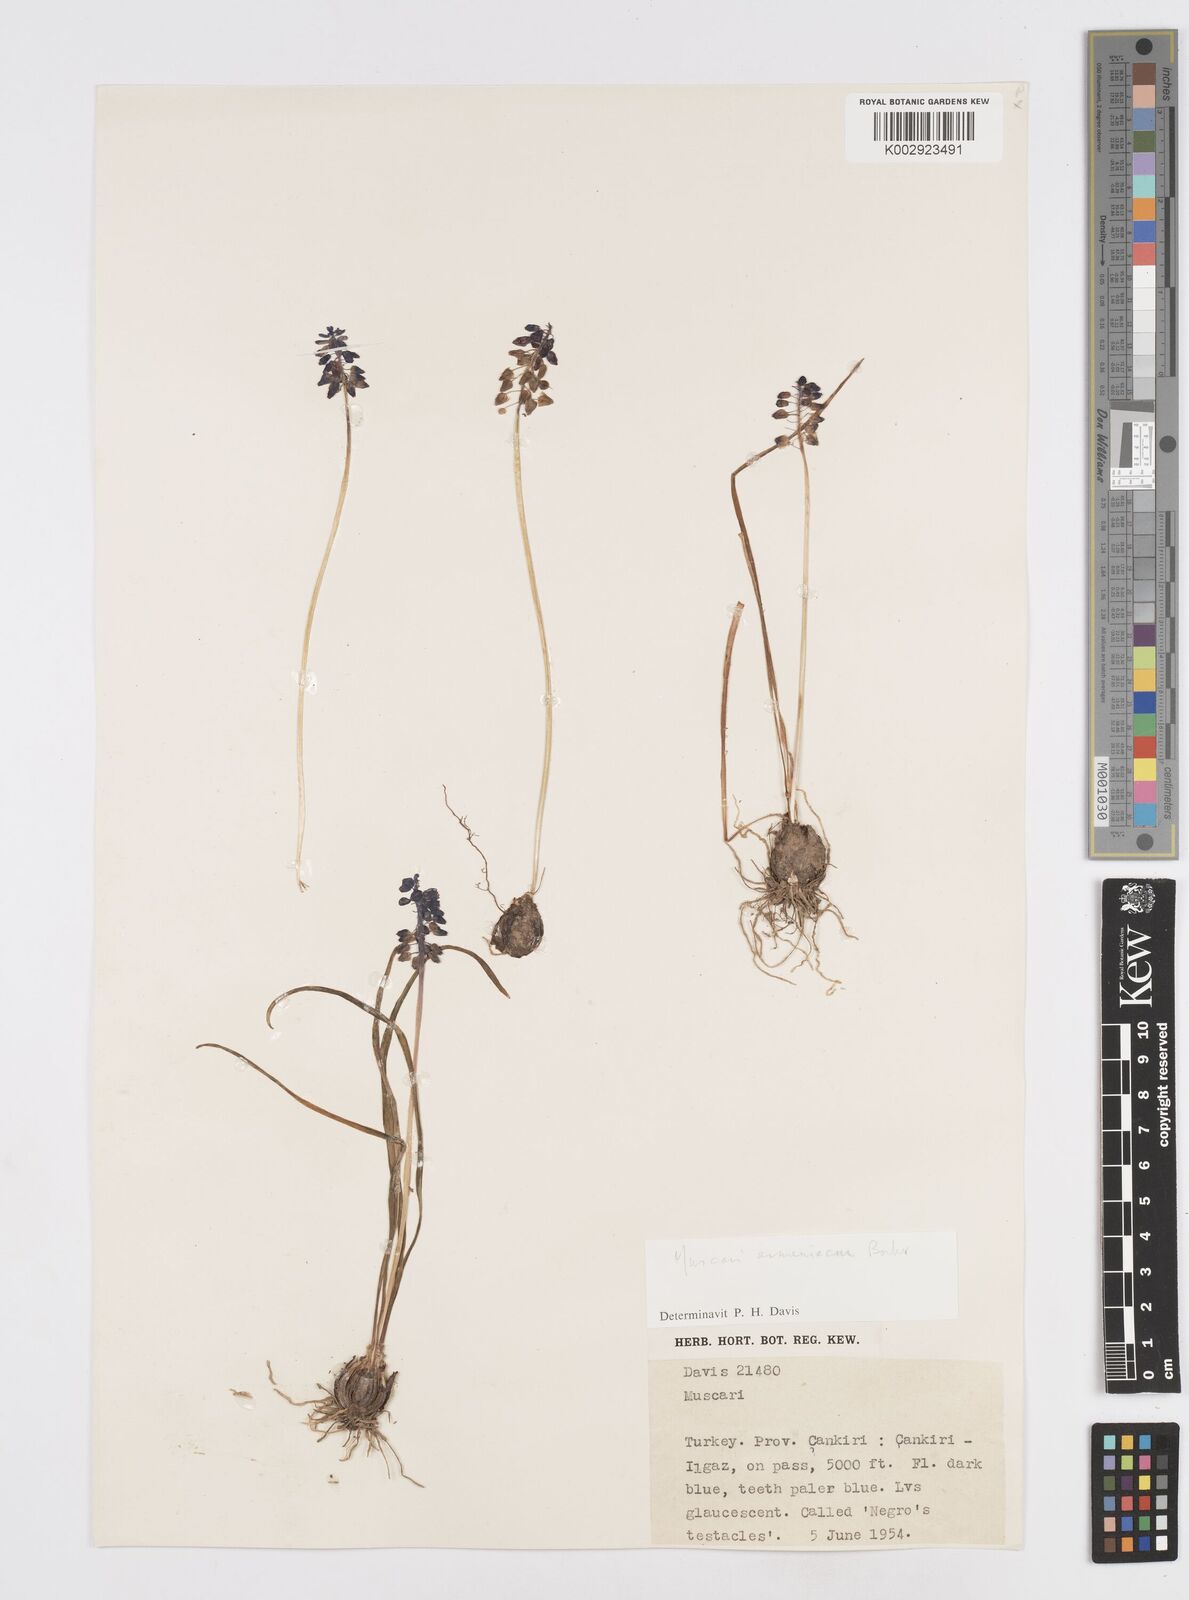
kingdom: Plantae
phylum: Tracheophyta
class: Liliopsida
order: Asparagales
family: Asparagaceae
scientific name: Asparagaceae
